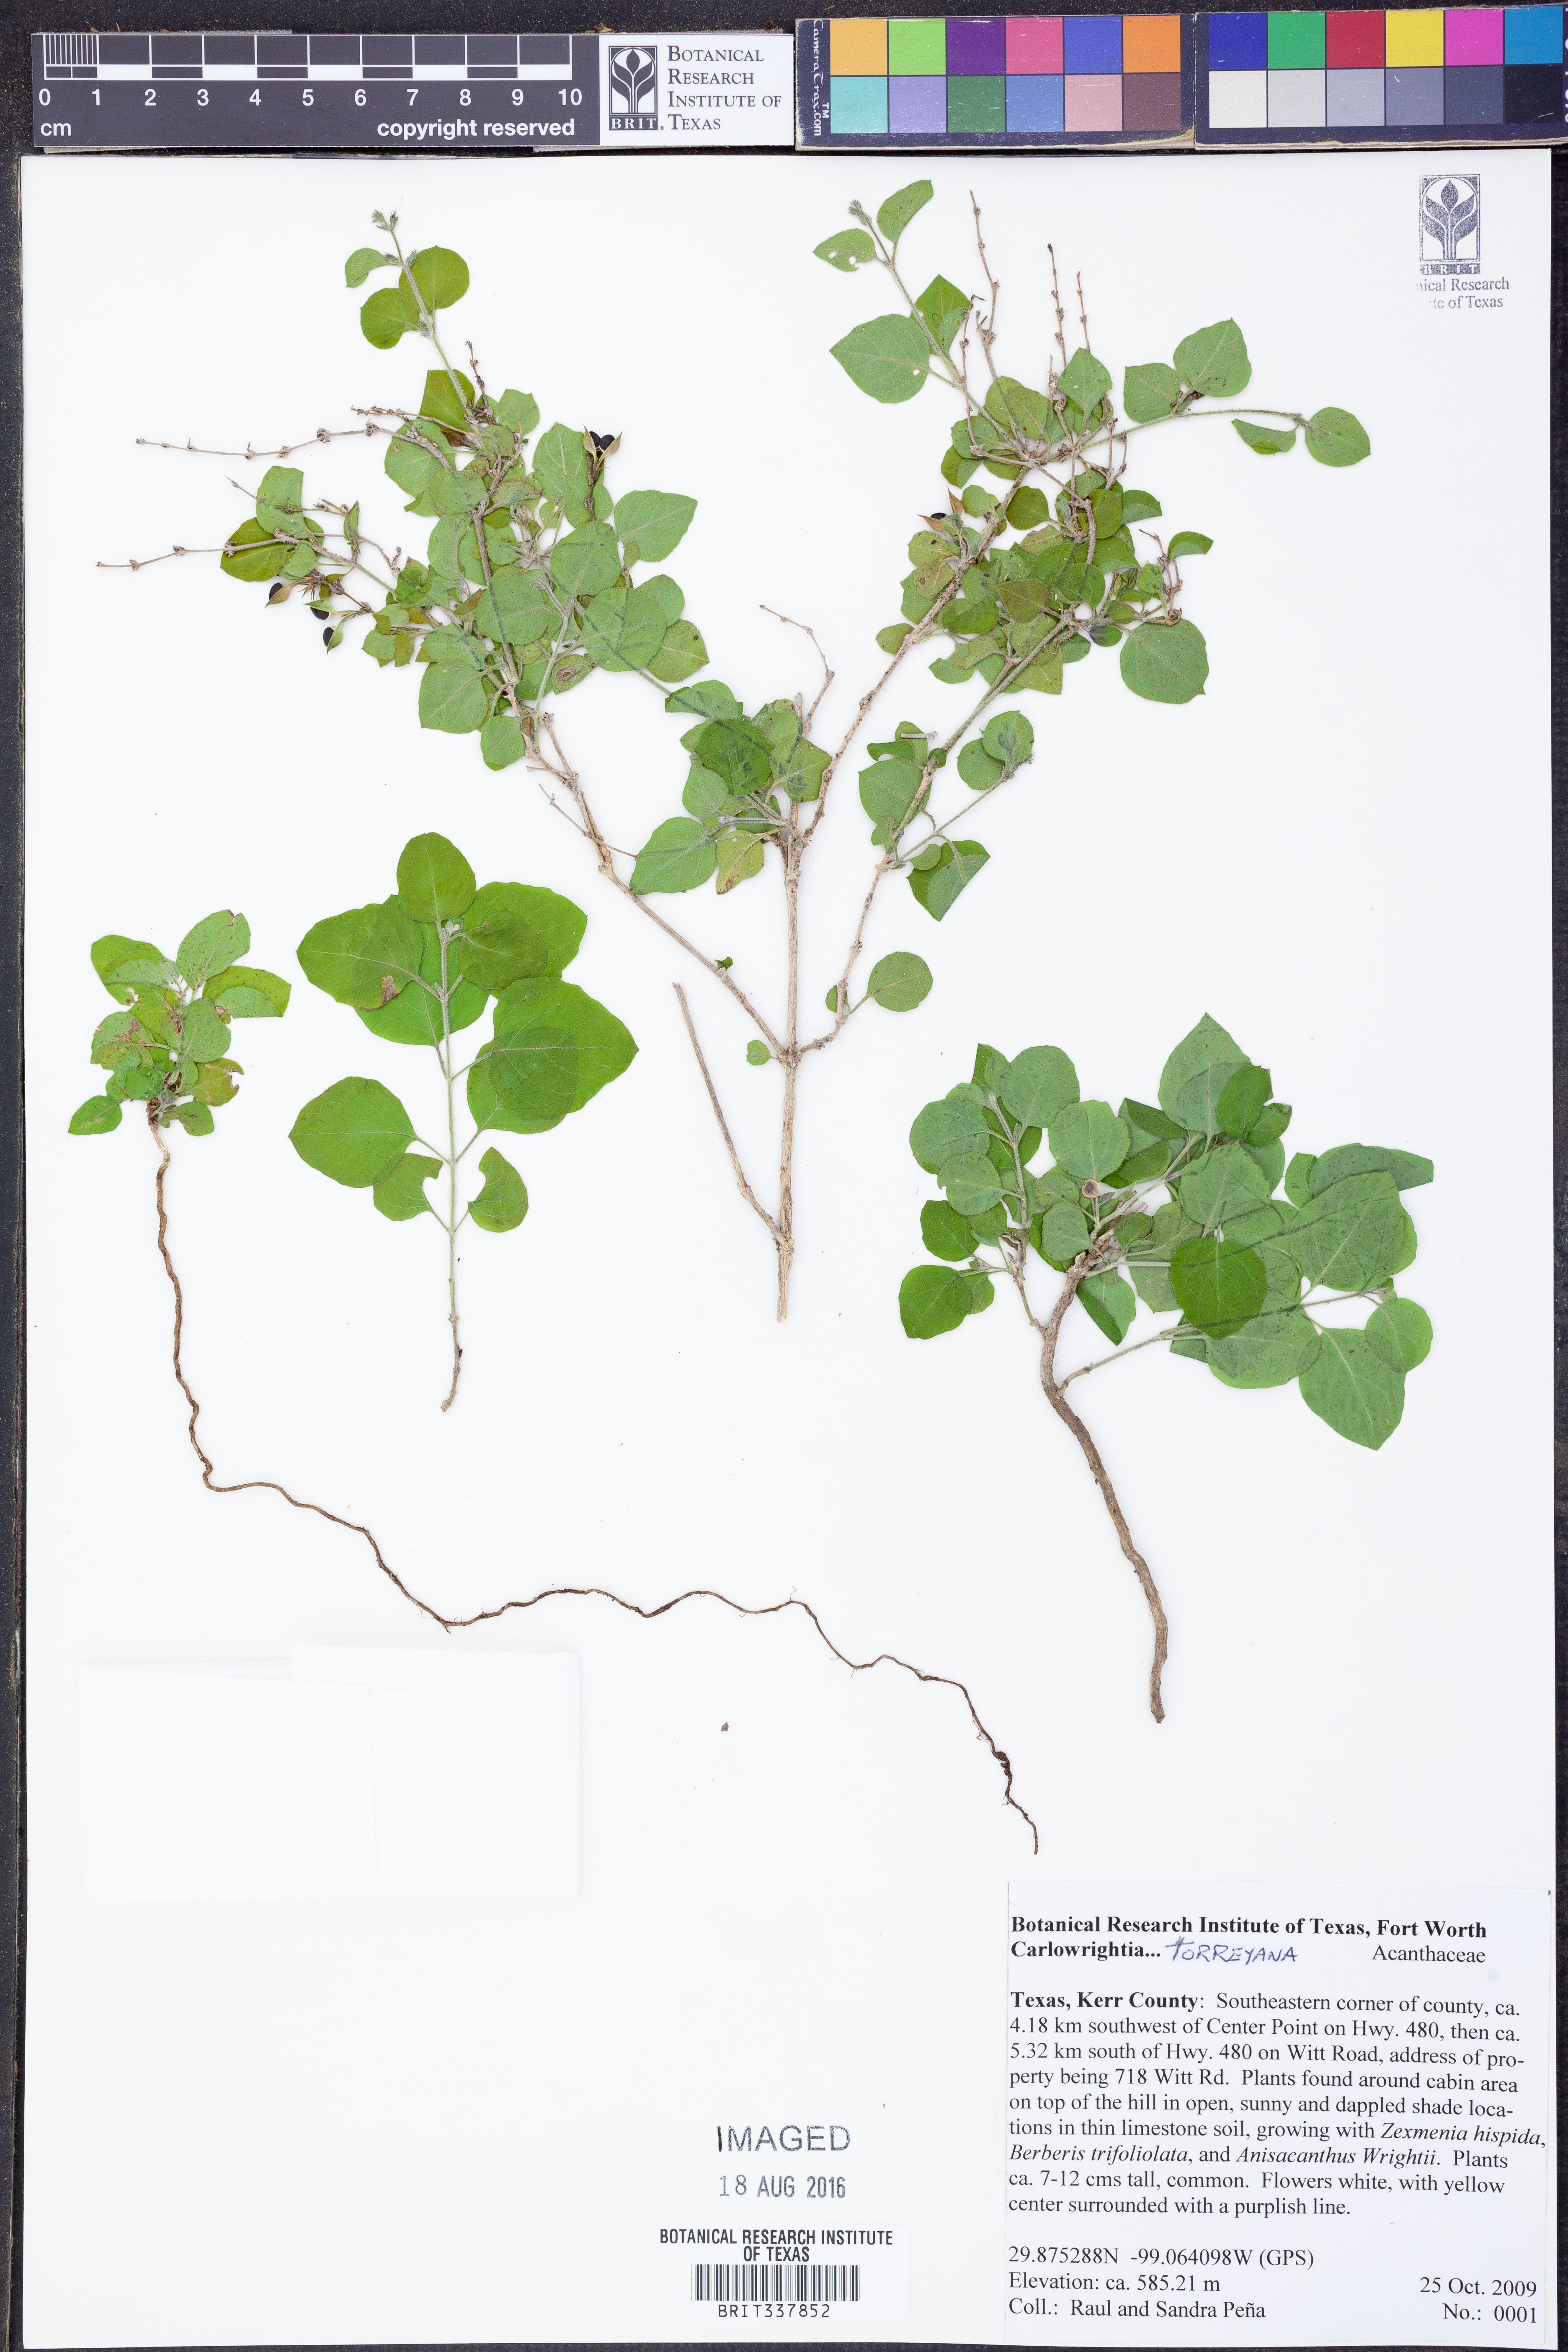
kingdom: Plantae
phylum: Tracheophyta
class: Magnoliopsida
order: Lamiales
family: Acanthaceae
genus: Carlowrightia
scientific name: Carlowrightia torreyana
